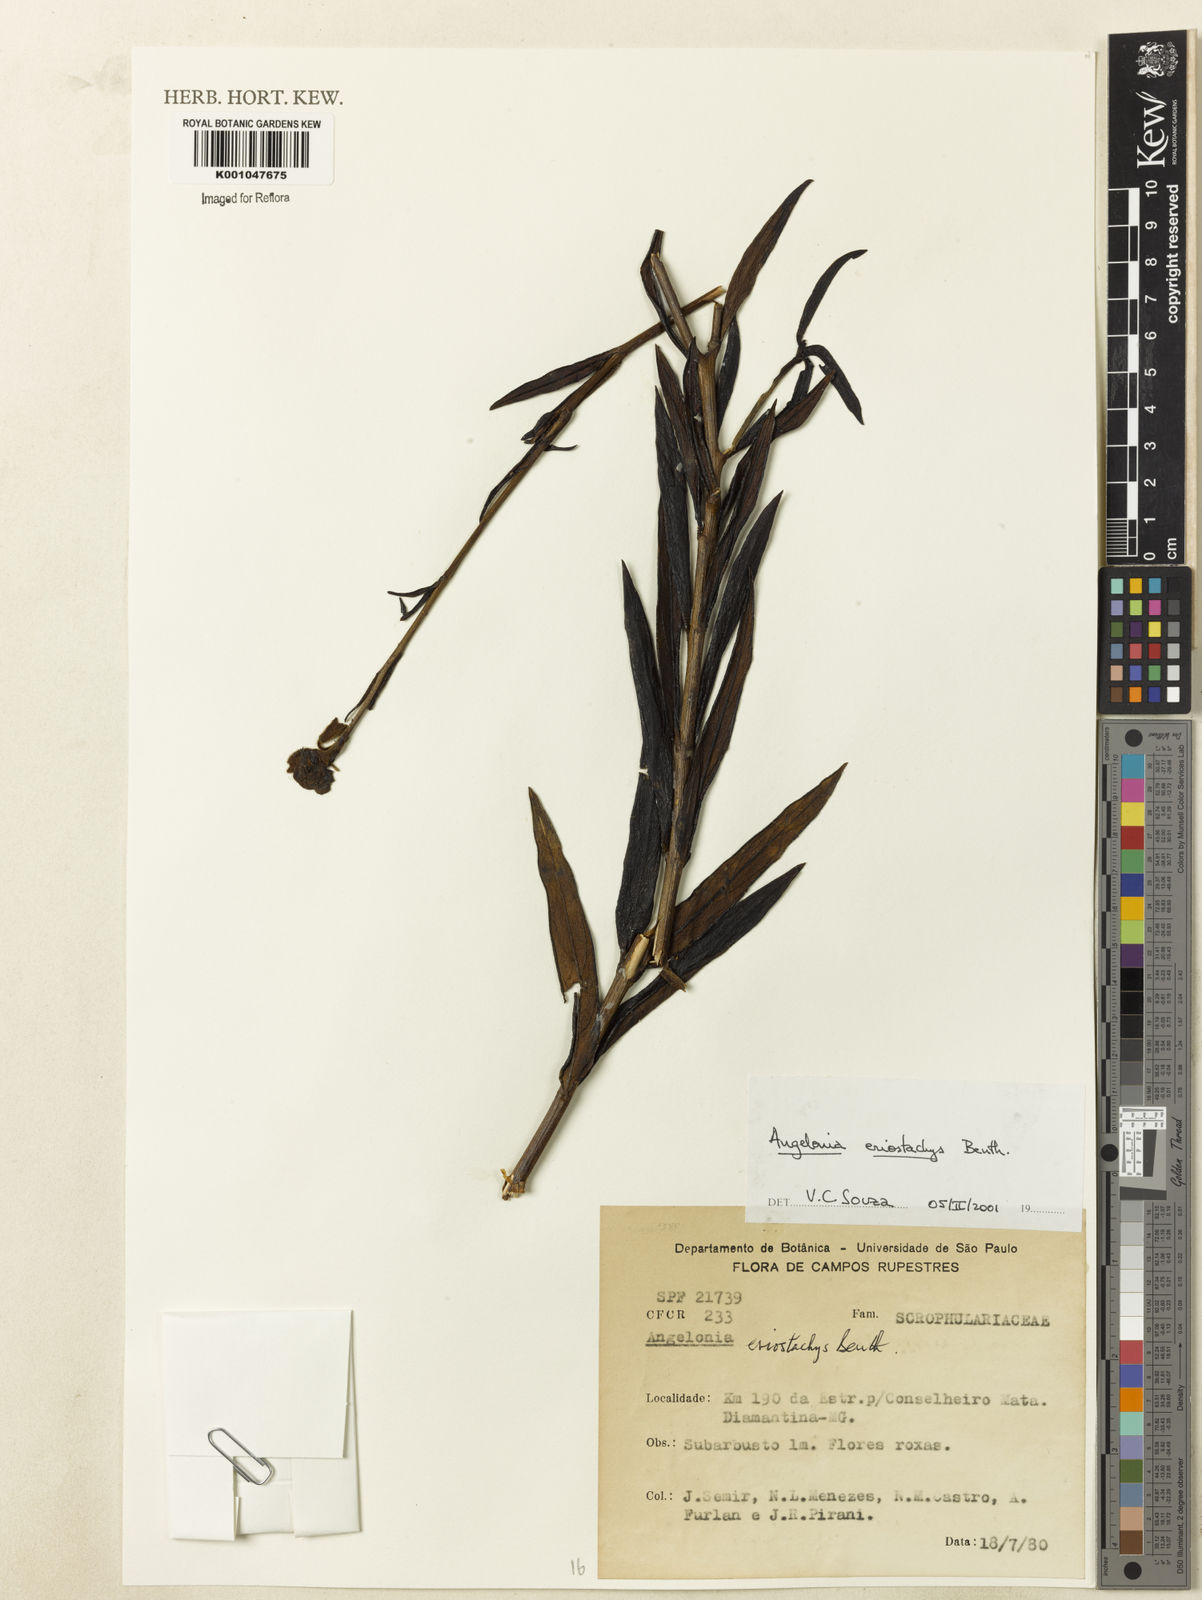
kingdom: Plantae
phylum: Tracheophyta
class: Magnoliopsida
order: Lamiales
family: Plantaginaceae
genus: Angelonia
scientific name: Angelonia eriostachys
